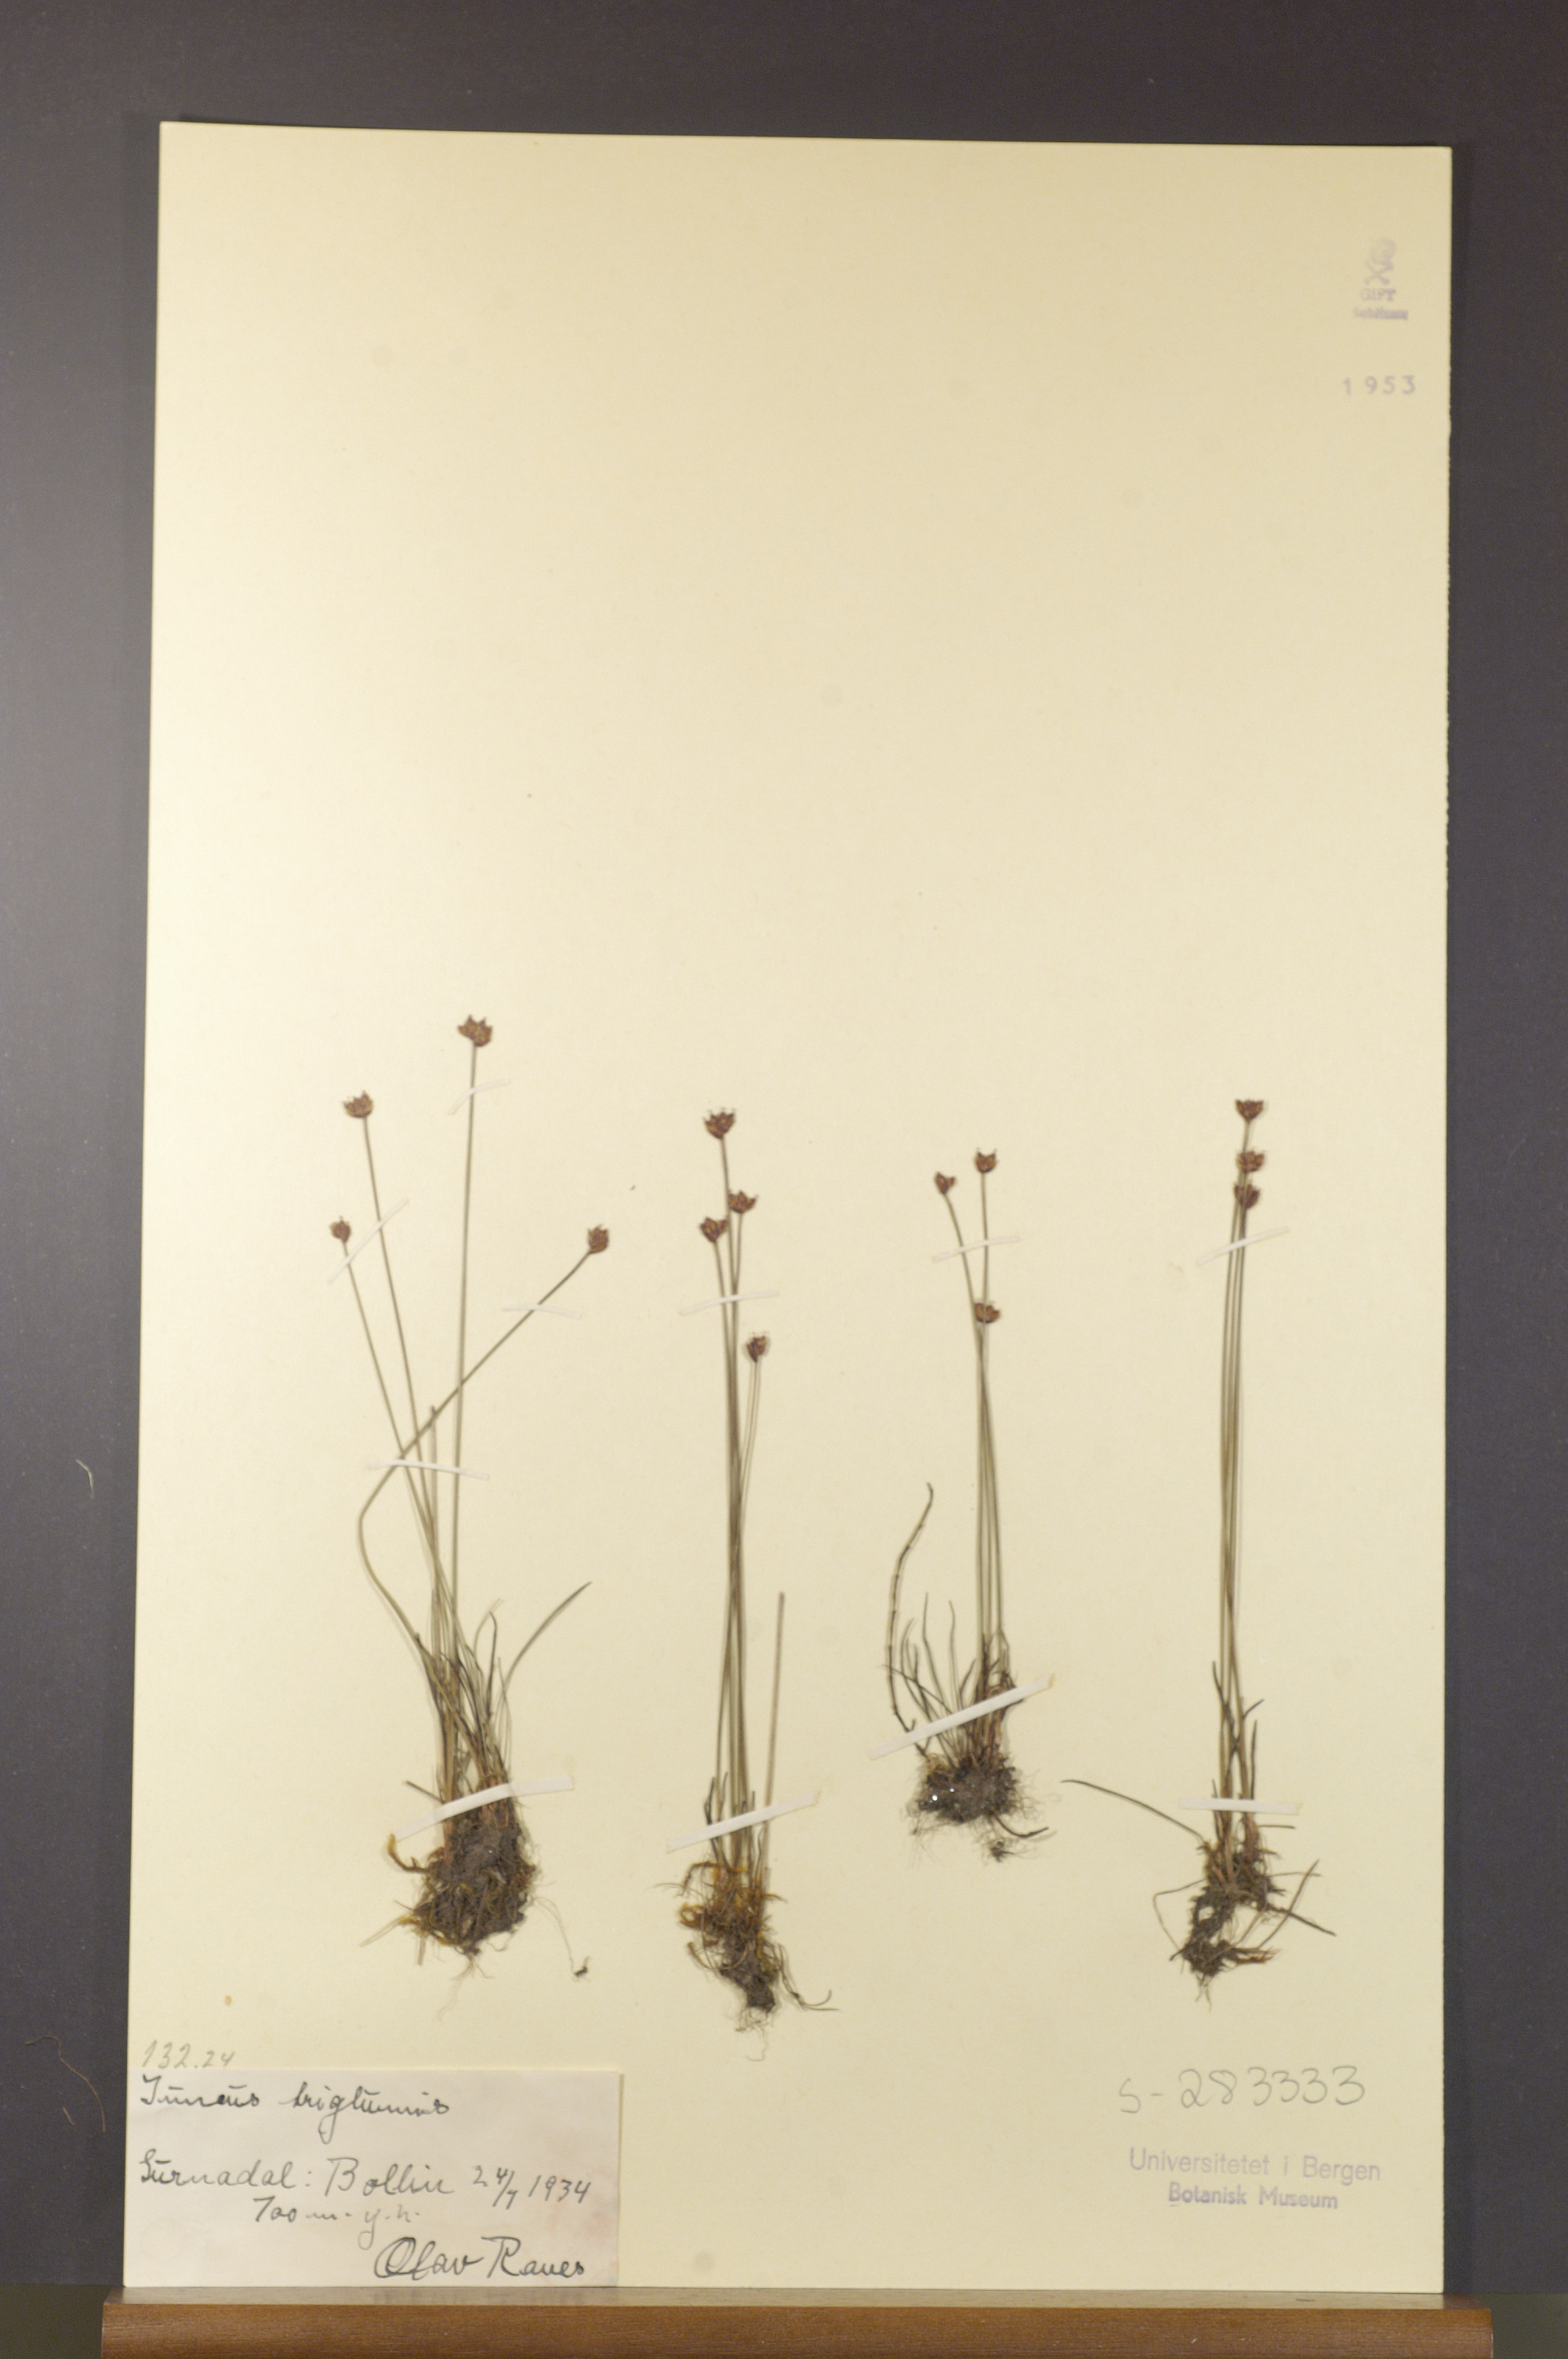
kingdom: Plantae
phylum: Tracheophyta
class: Liliopsida
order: Poales
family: Juncaceae
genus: Juncus
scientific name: Juncus triglumis
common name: Three-flowered rush
